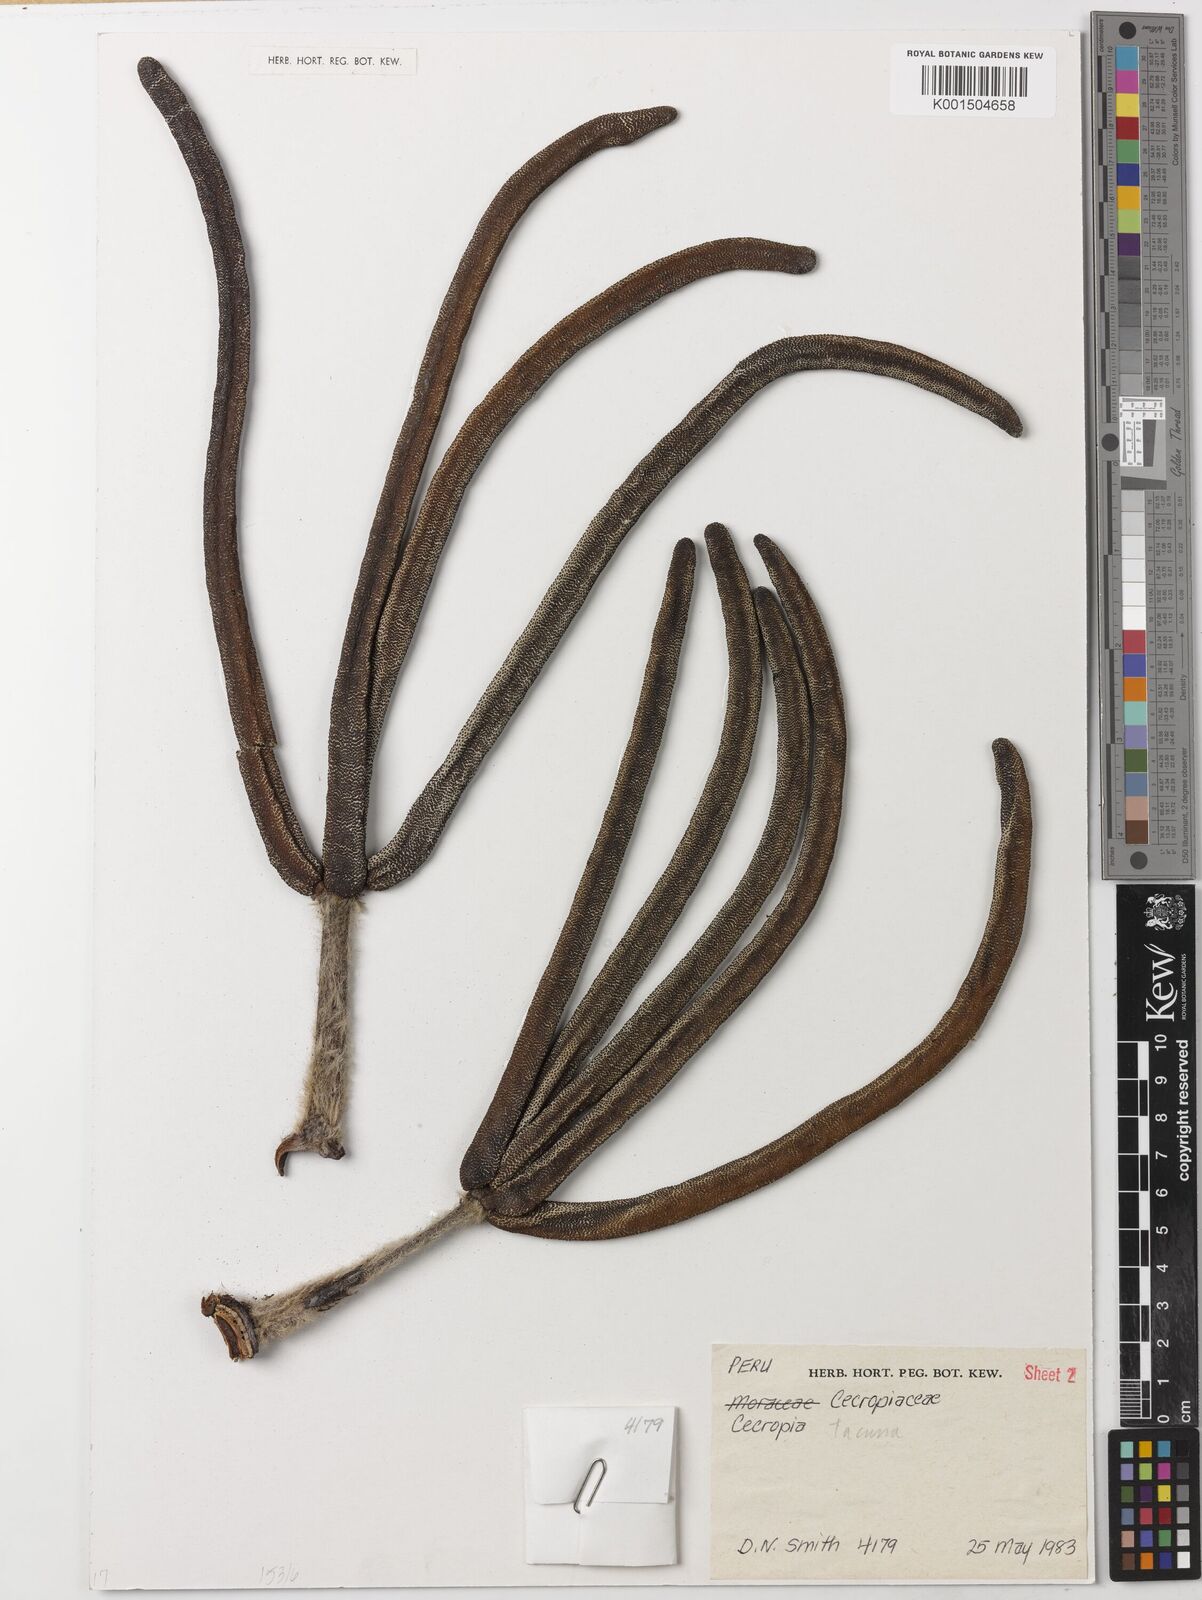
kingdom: Plantae
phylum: Tracheophyta
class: Magnoliopsida
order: Rosales
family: Urticaceae
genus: Cecropia
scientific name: Cecropia tacuna
